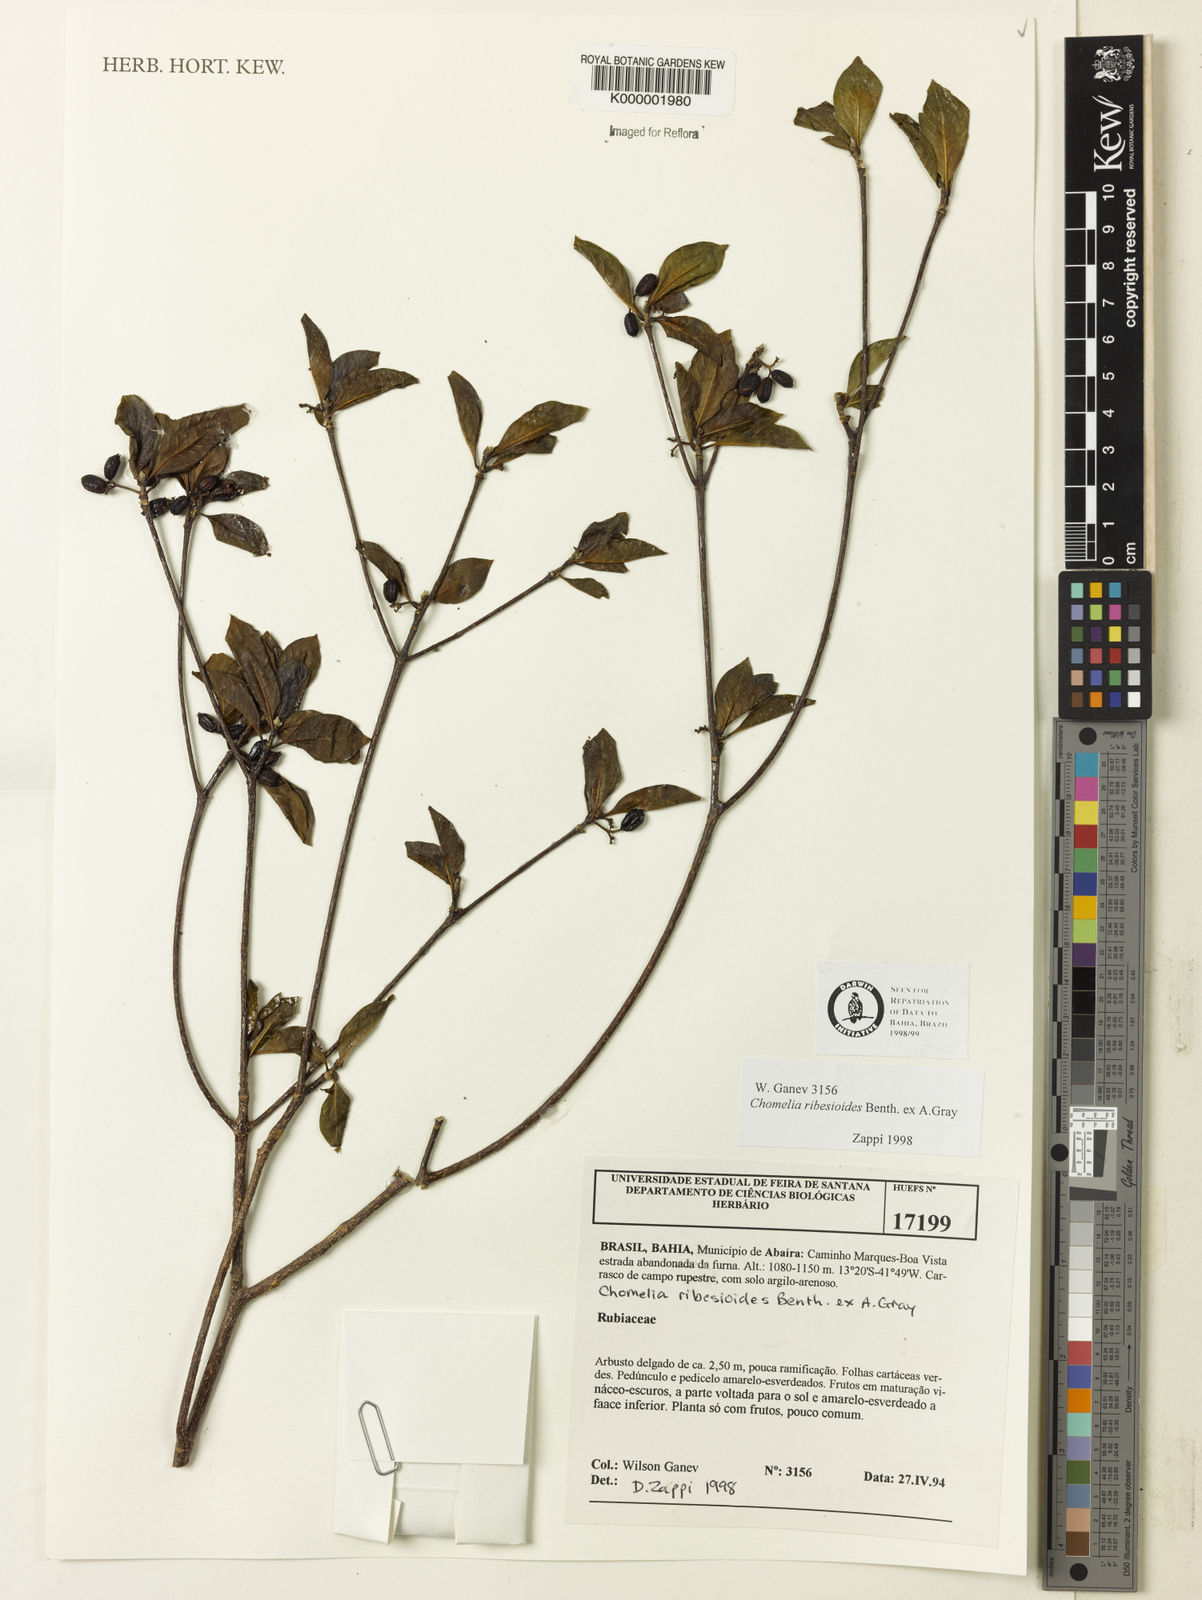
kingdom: Plantae
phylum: Tracheophyta
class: Magnoliopsida
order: Gentianales
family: Rubiaceae
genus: Chomelia
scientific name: Chomelia ribesioides
